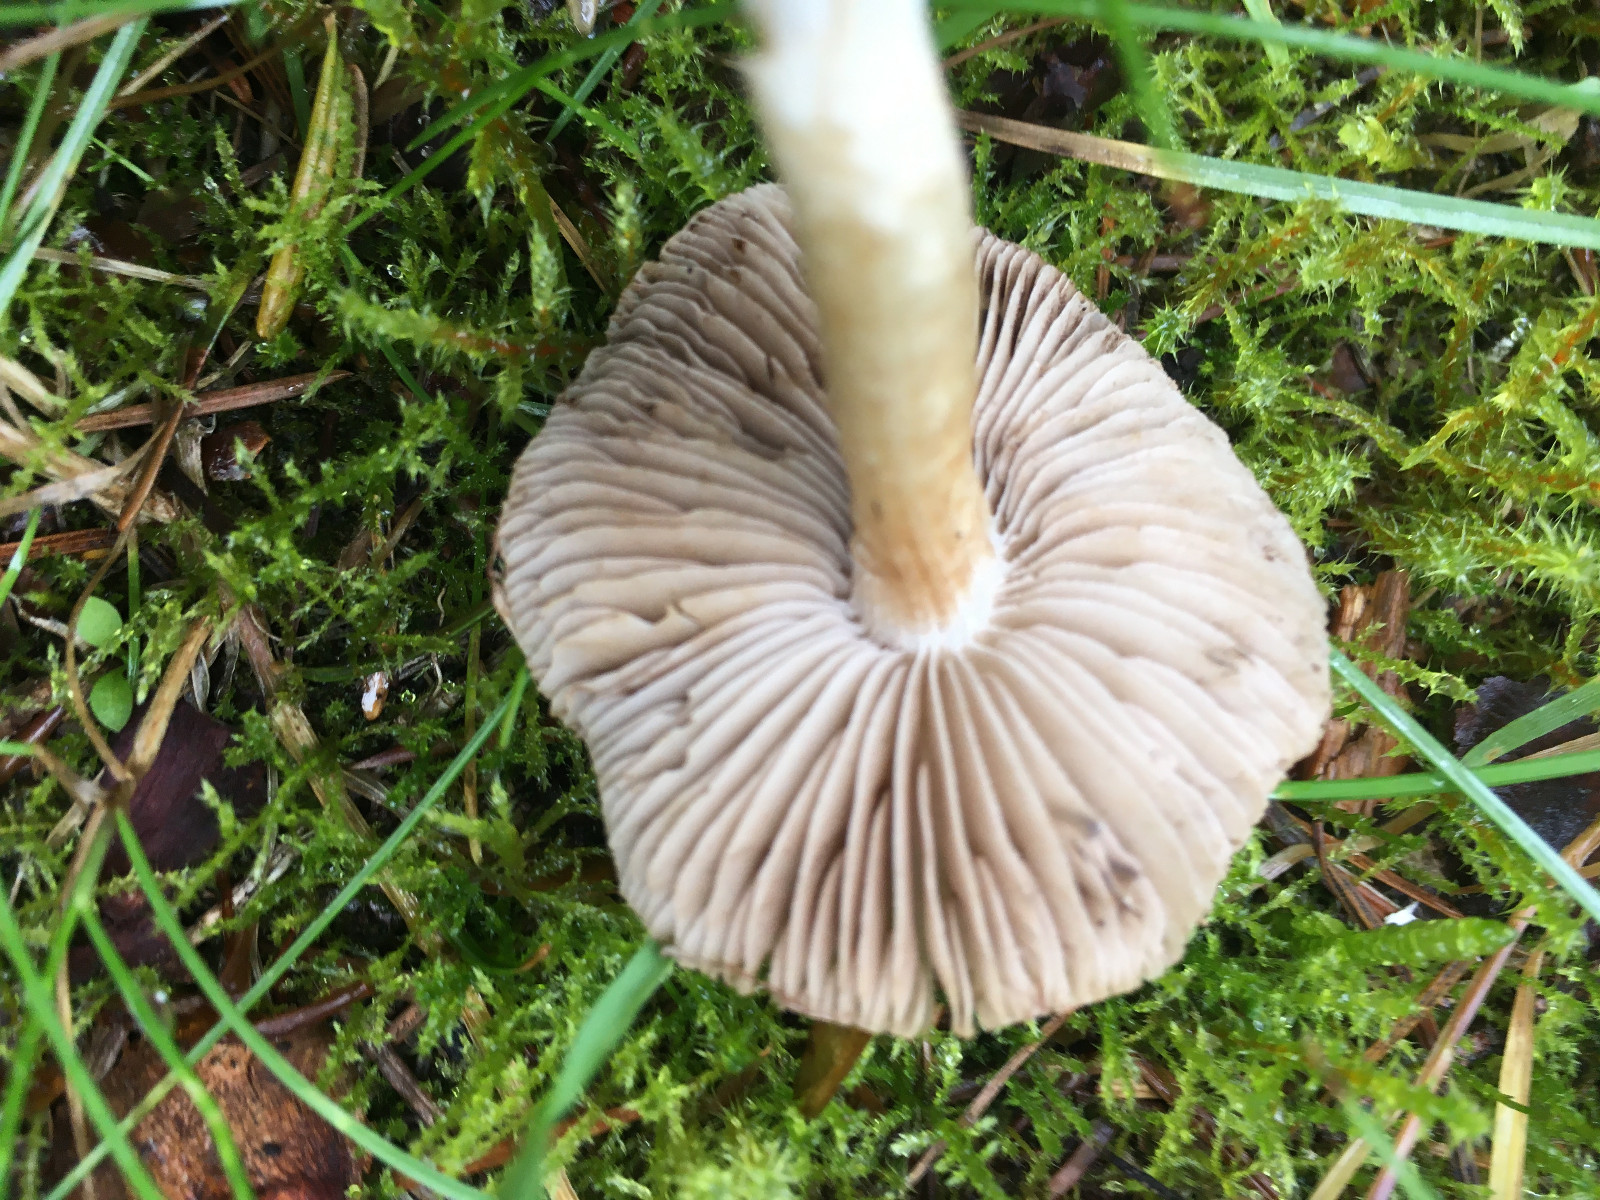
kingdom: Fungi
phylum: Basidiomycota
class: Agaricomycetes
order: Agaricales
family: Inocybaceae
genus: Inocybe
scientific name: Inocybe
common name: trævlhat
